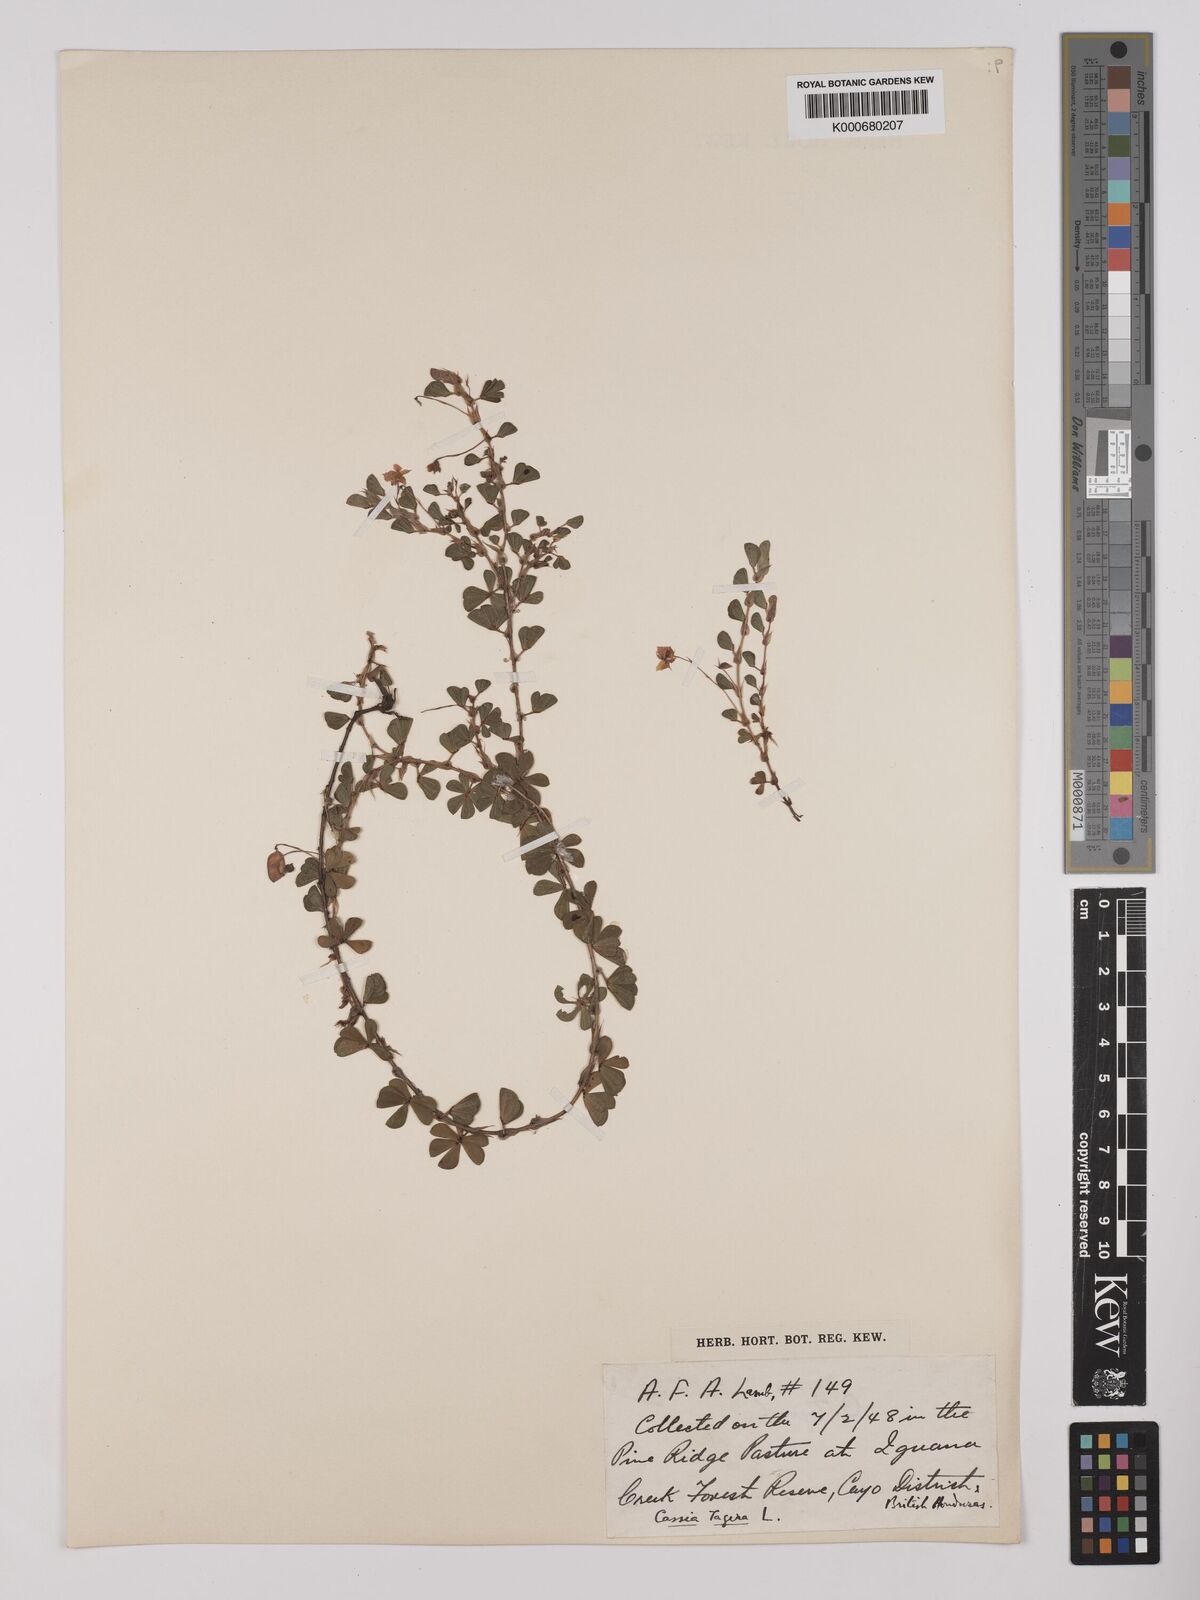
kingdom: Plantae
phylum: Tracheophyta
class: Magnoliopsida
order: Fabales
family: Fabaceae
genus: Chamaecrista
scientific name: Chamaecrista kunthiana
